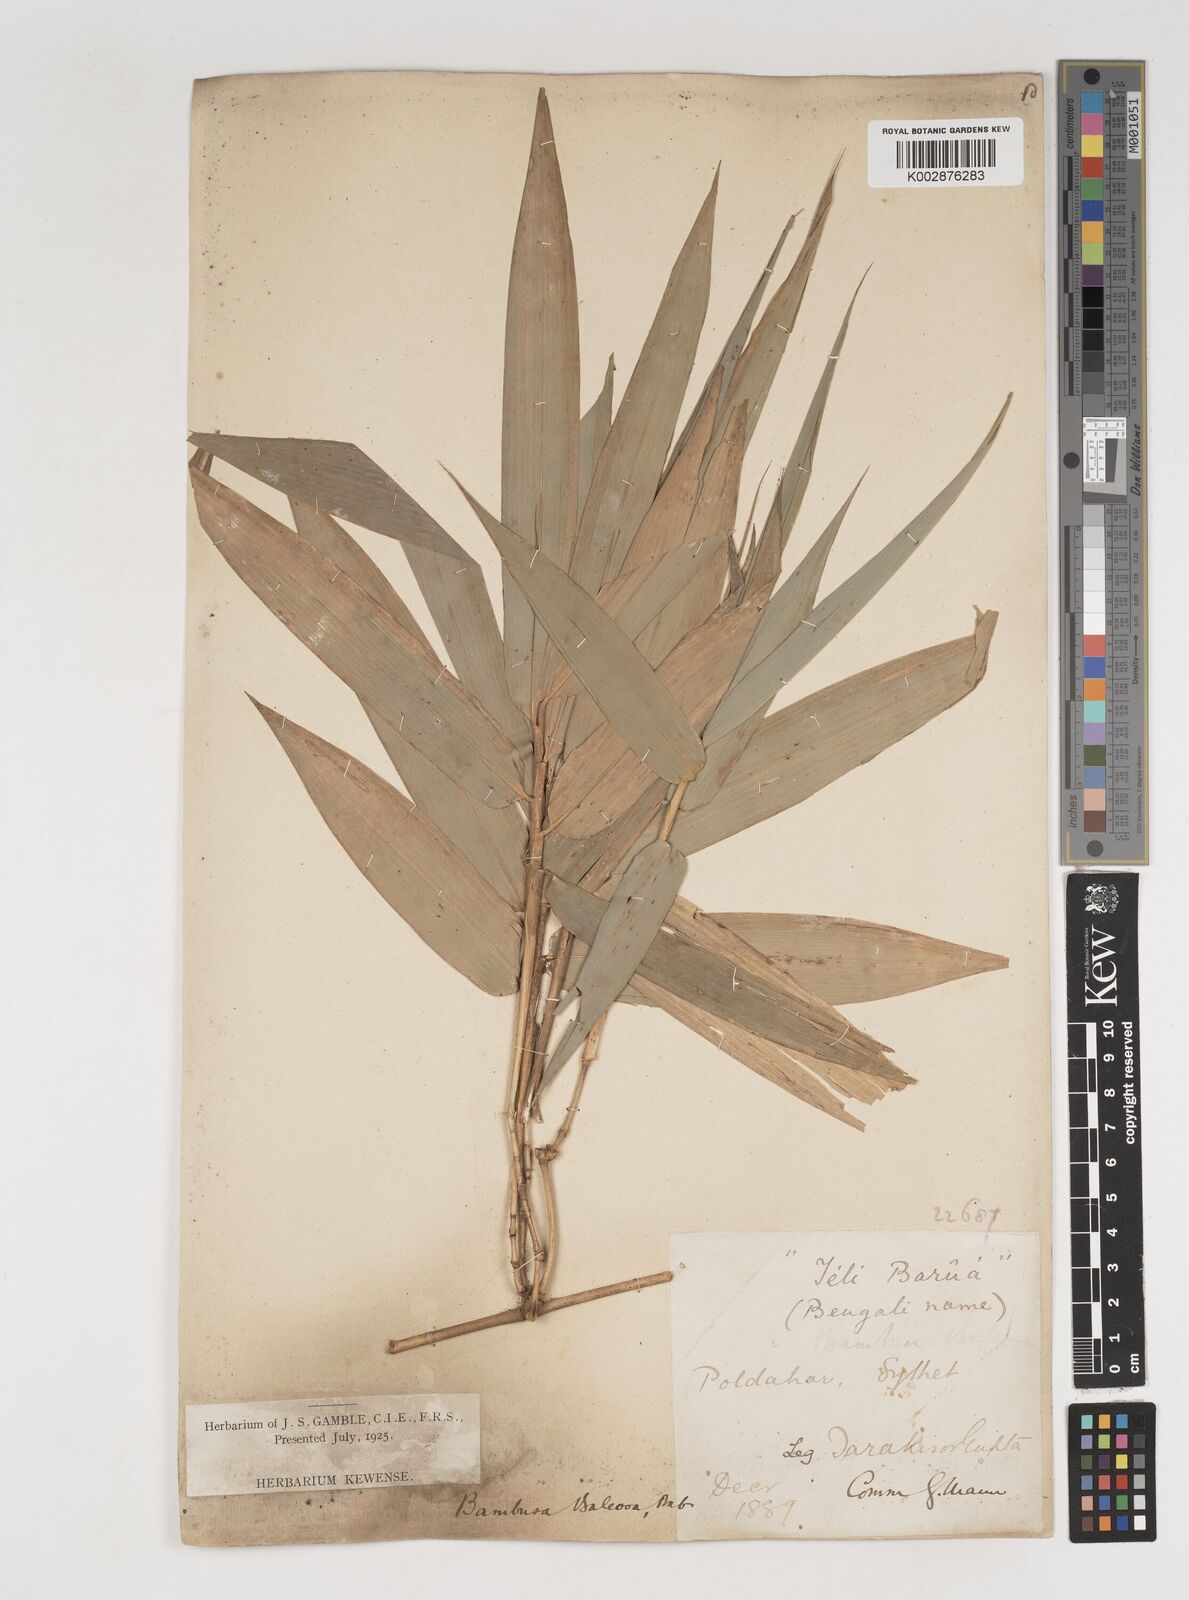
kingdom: Plantae
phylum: Tracheophyta
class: Liliopsida
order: Poales
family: Poaceae
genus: Bambusa
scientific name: Bambusa balcooa
